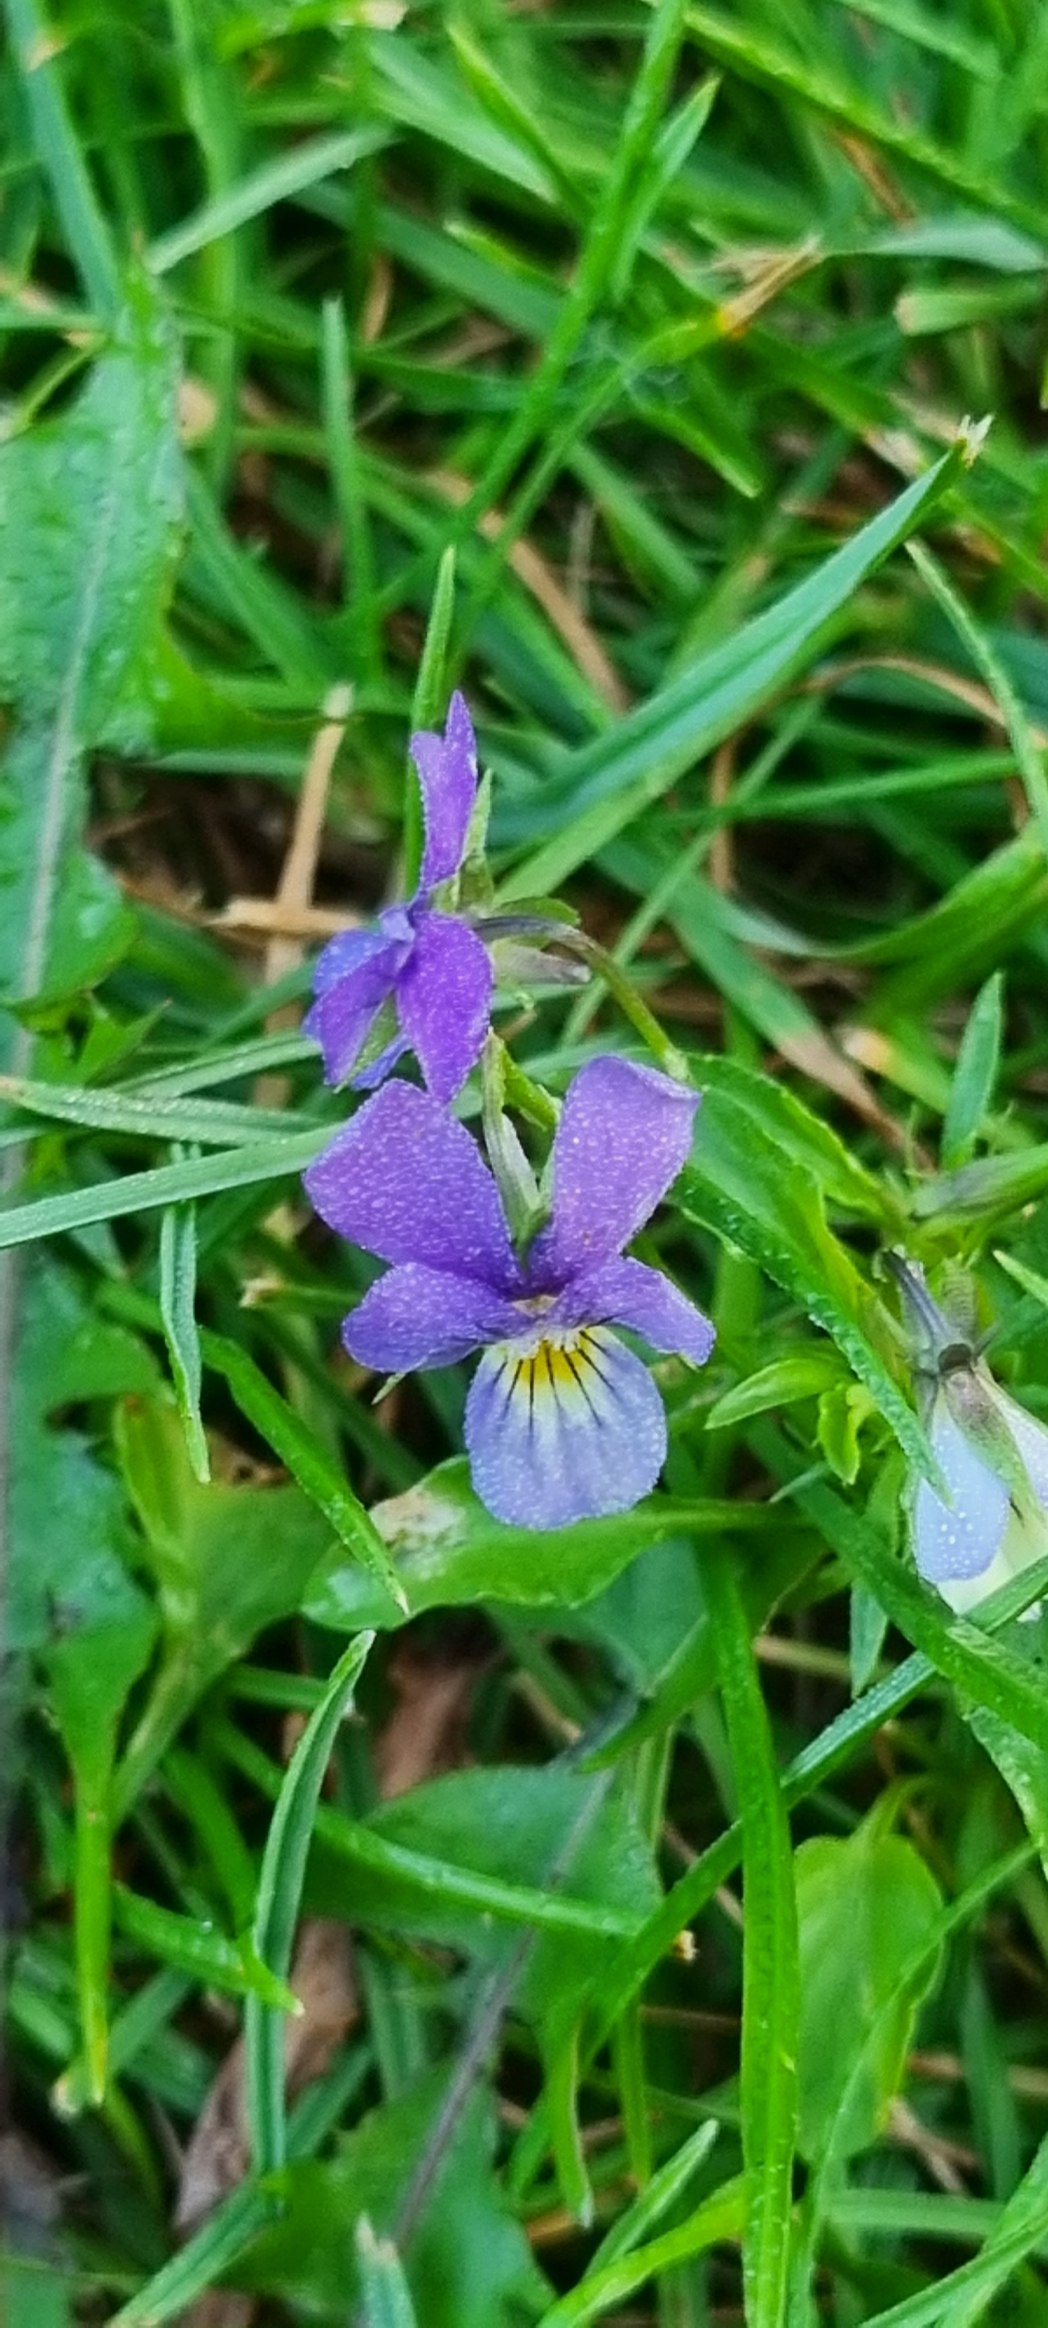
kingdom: Plantae
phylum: Tracheophyta
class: Magnoliopsida
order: Malpighiales
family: Violaceae
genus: Viola
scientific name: Viola tricolor
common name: Stedmoderblomst
